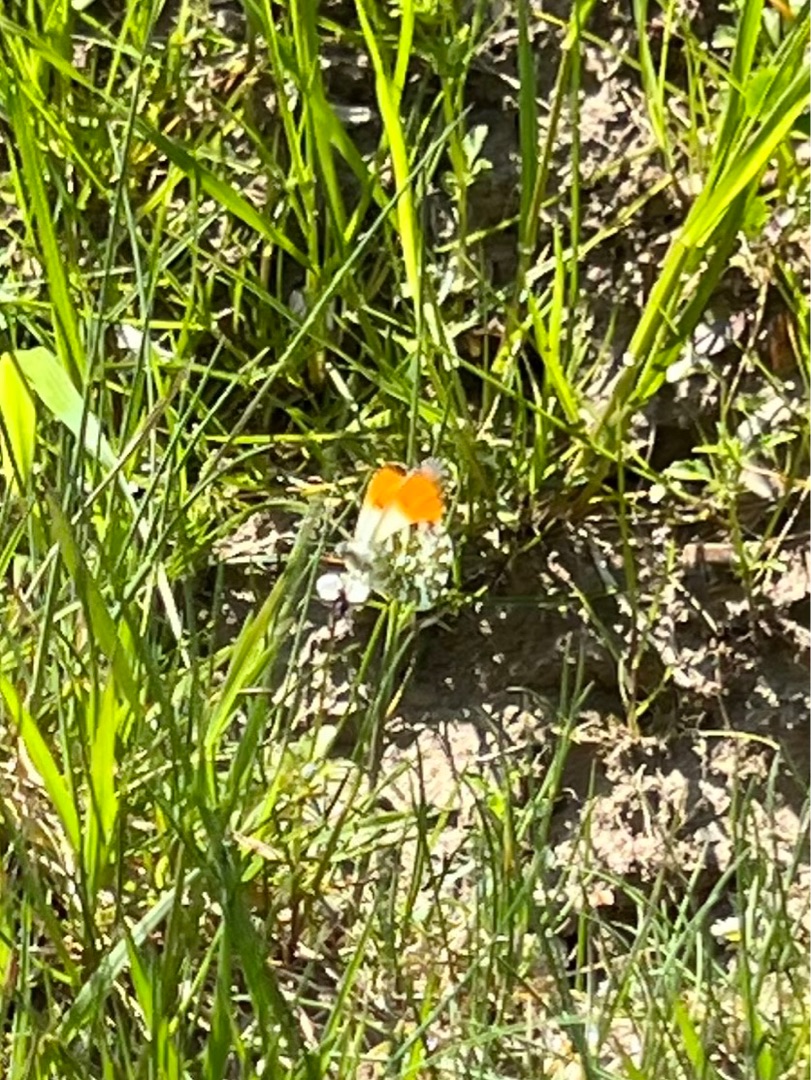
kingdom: Animalia
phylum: Arthropoda
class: Insecta
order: Lepidoptera
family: Pieridae
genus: Anthocharis
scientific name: Anthocharis cardamines
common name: Aurora
